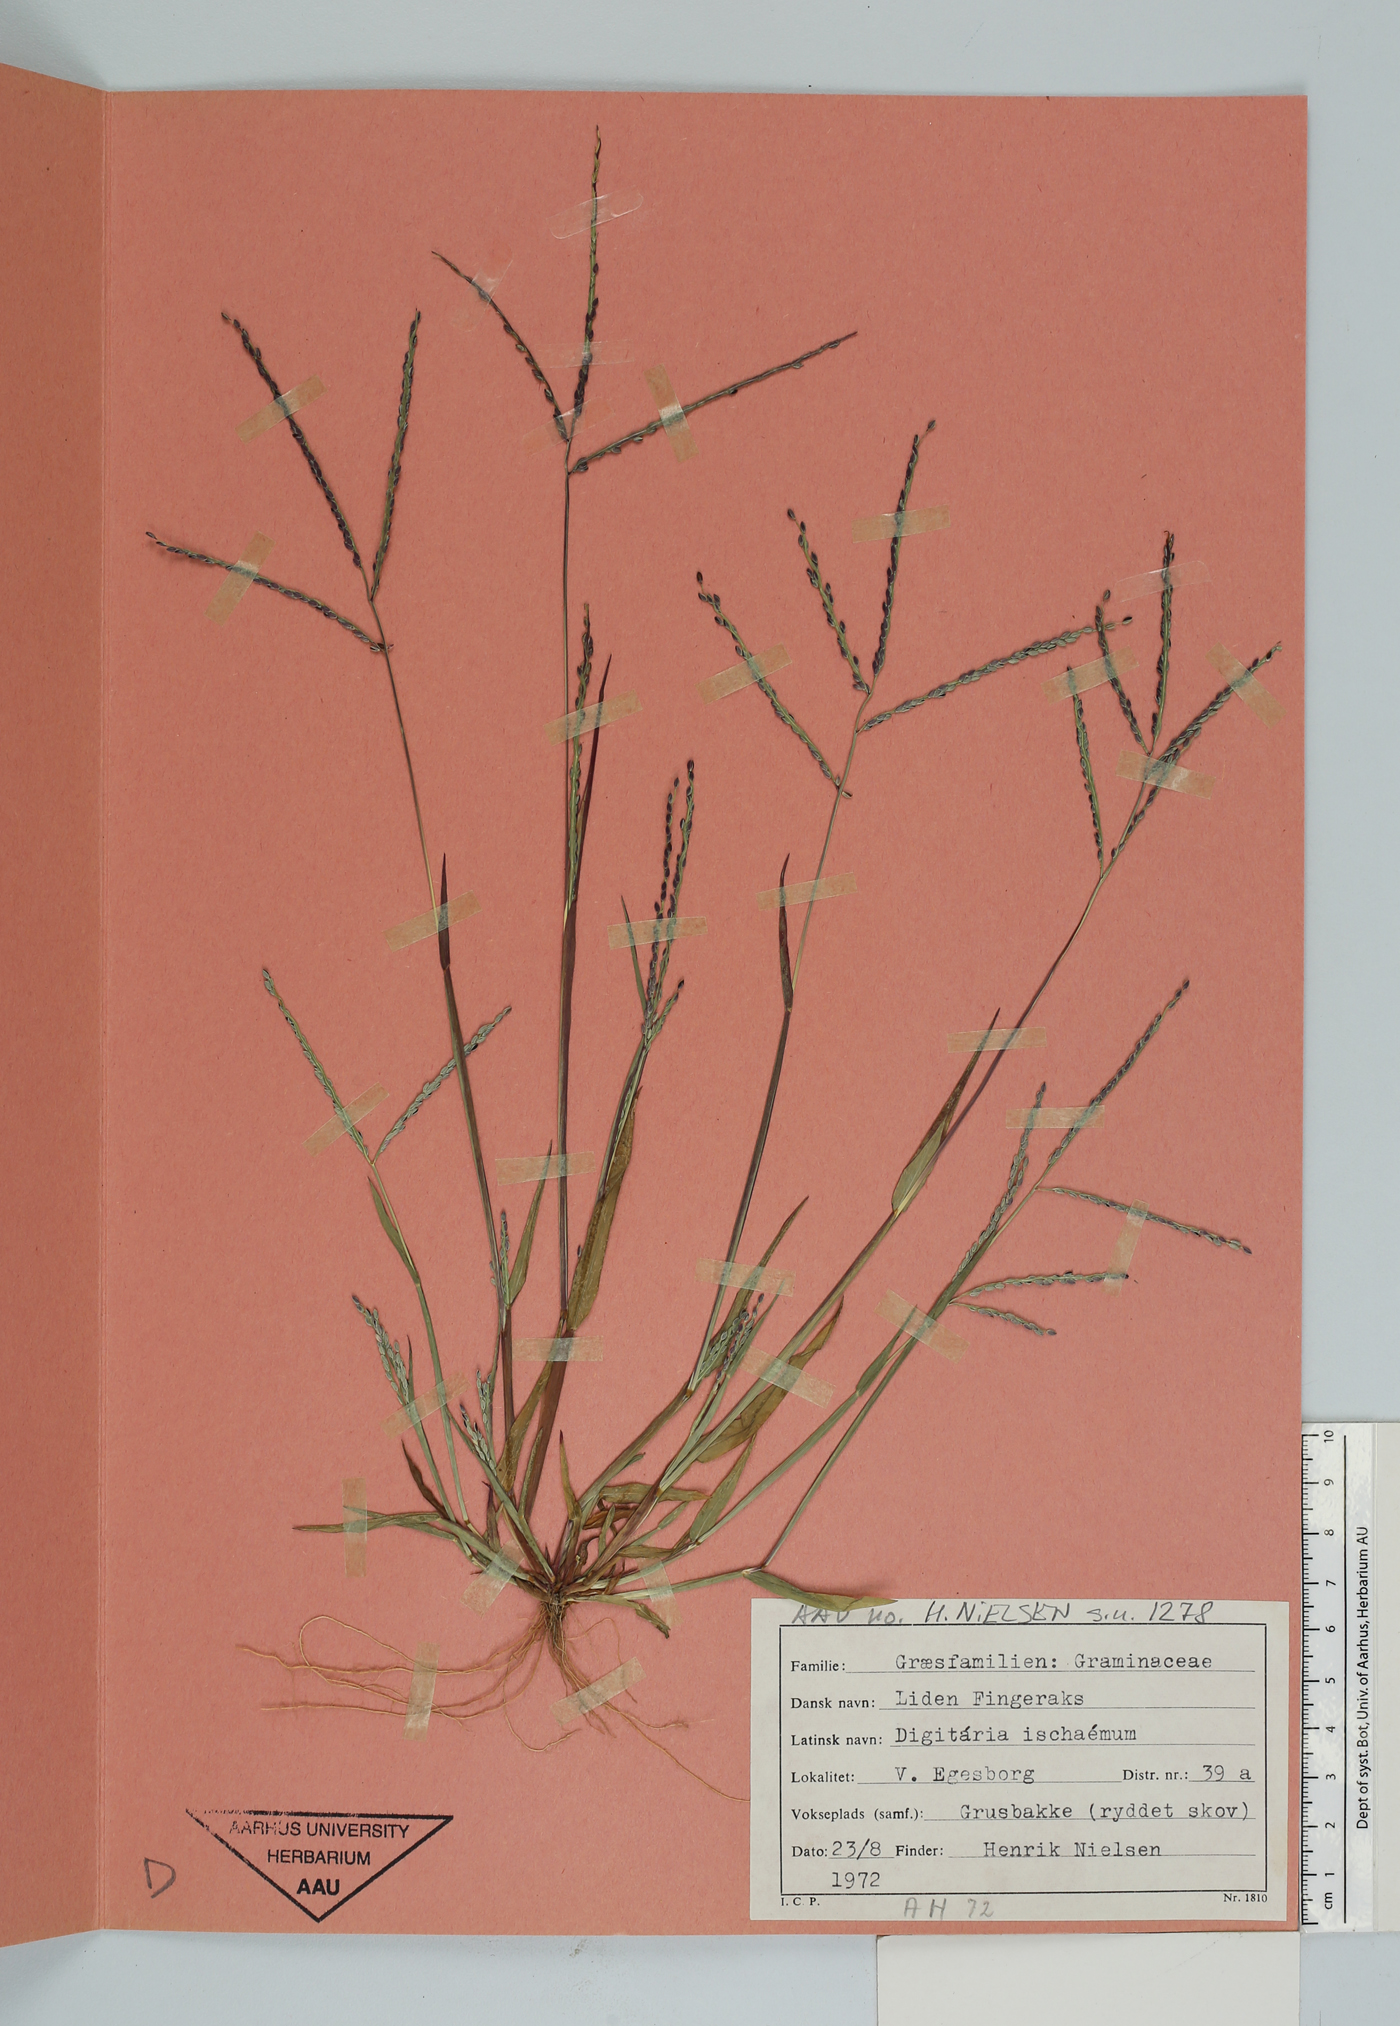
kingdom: Plantae
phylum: Tracheophyta
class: Liliopsida
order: Poales
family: Poaceae
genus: Digitaria
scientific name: Digitaria ischaemum
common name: Smooth crabgrass
